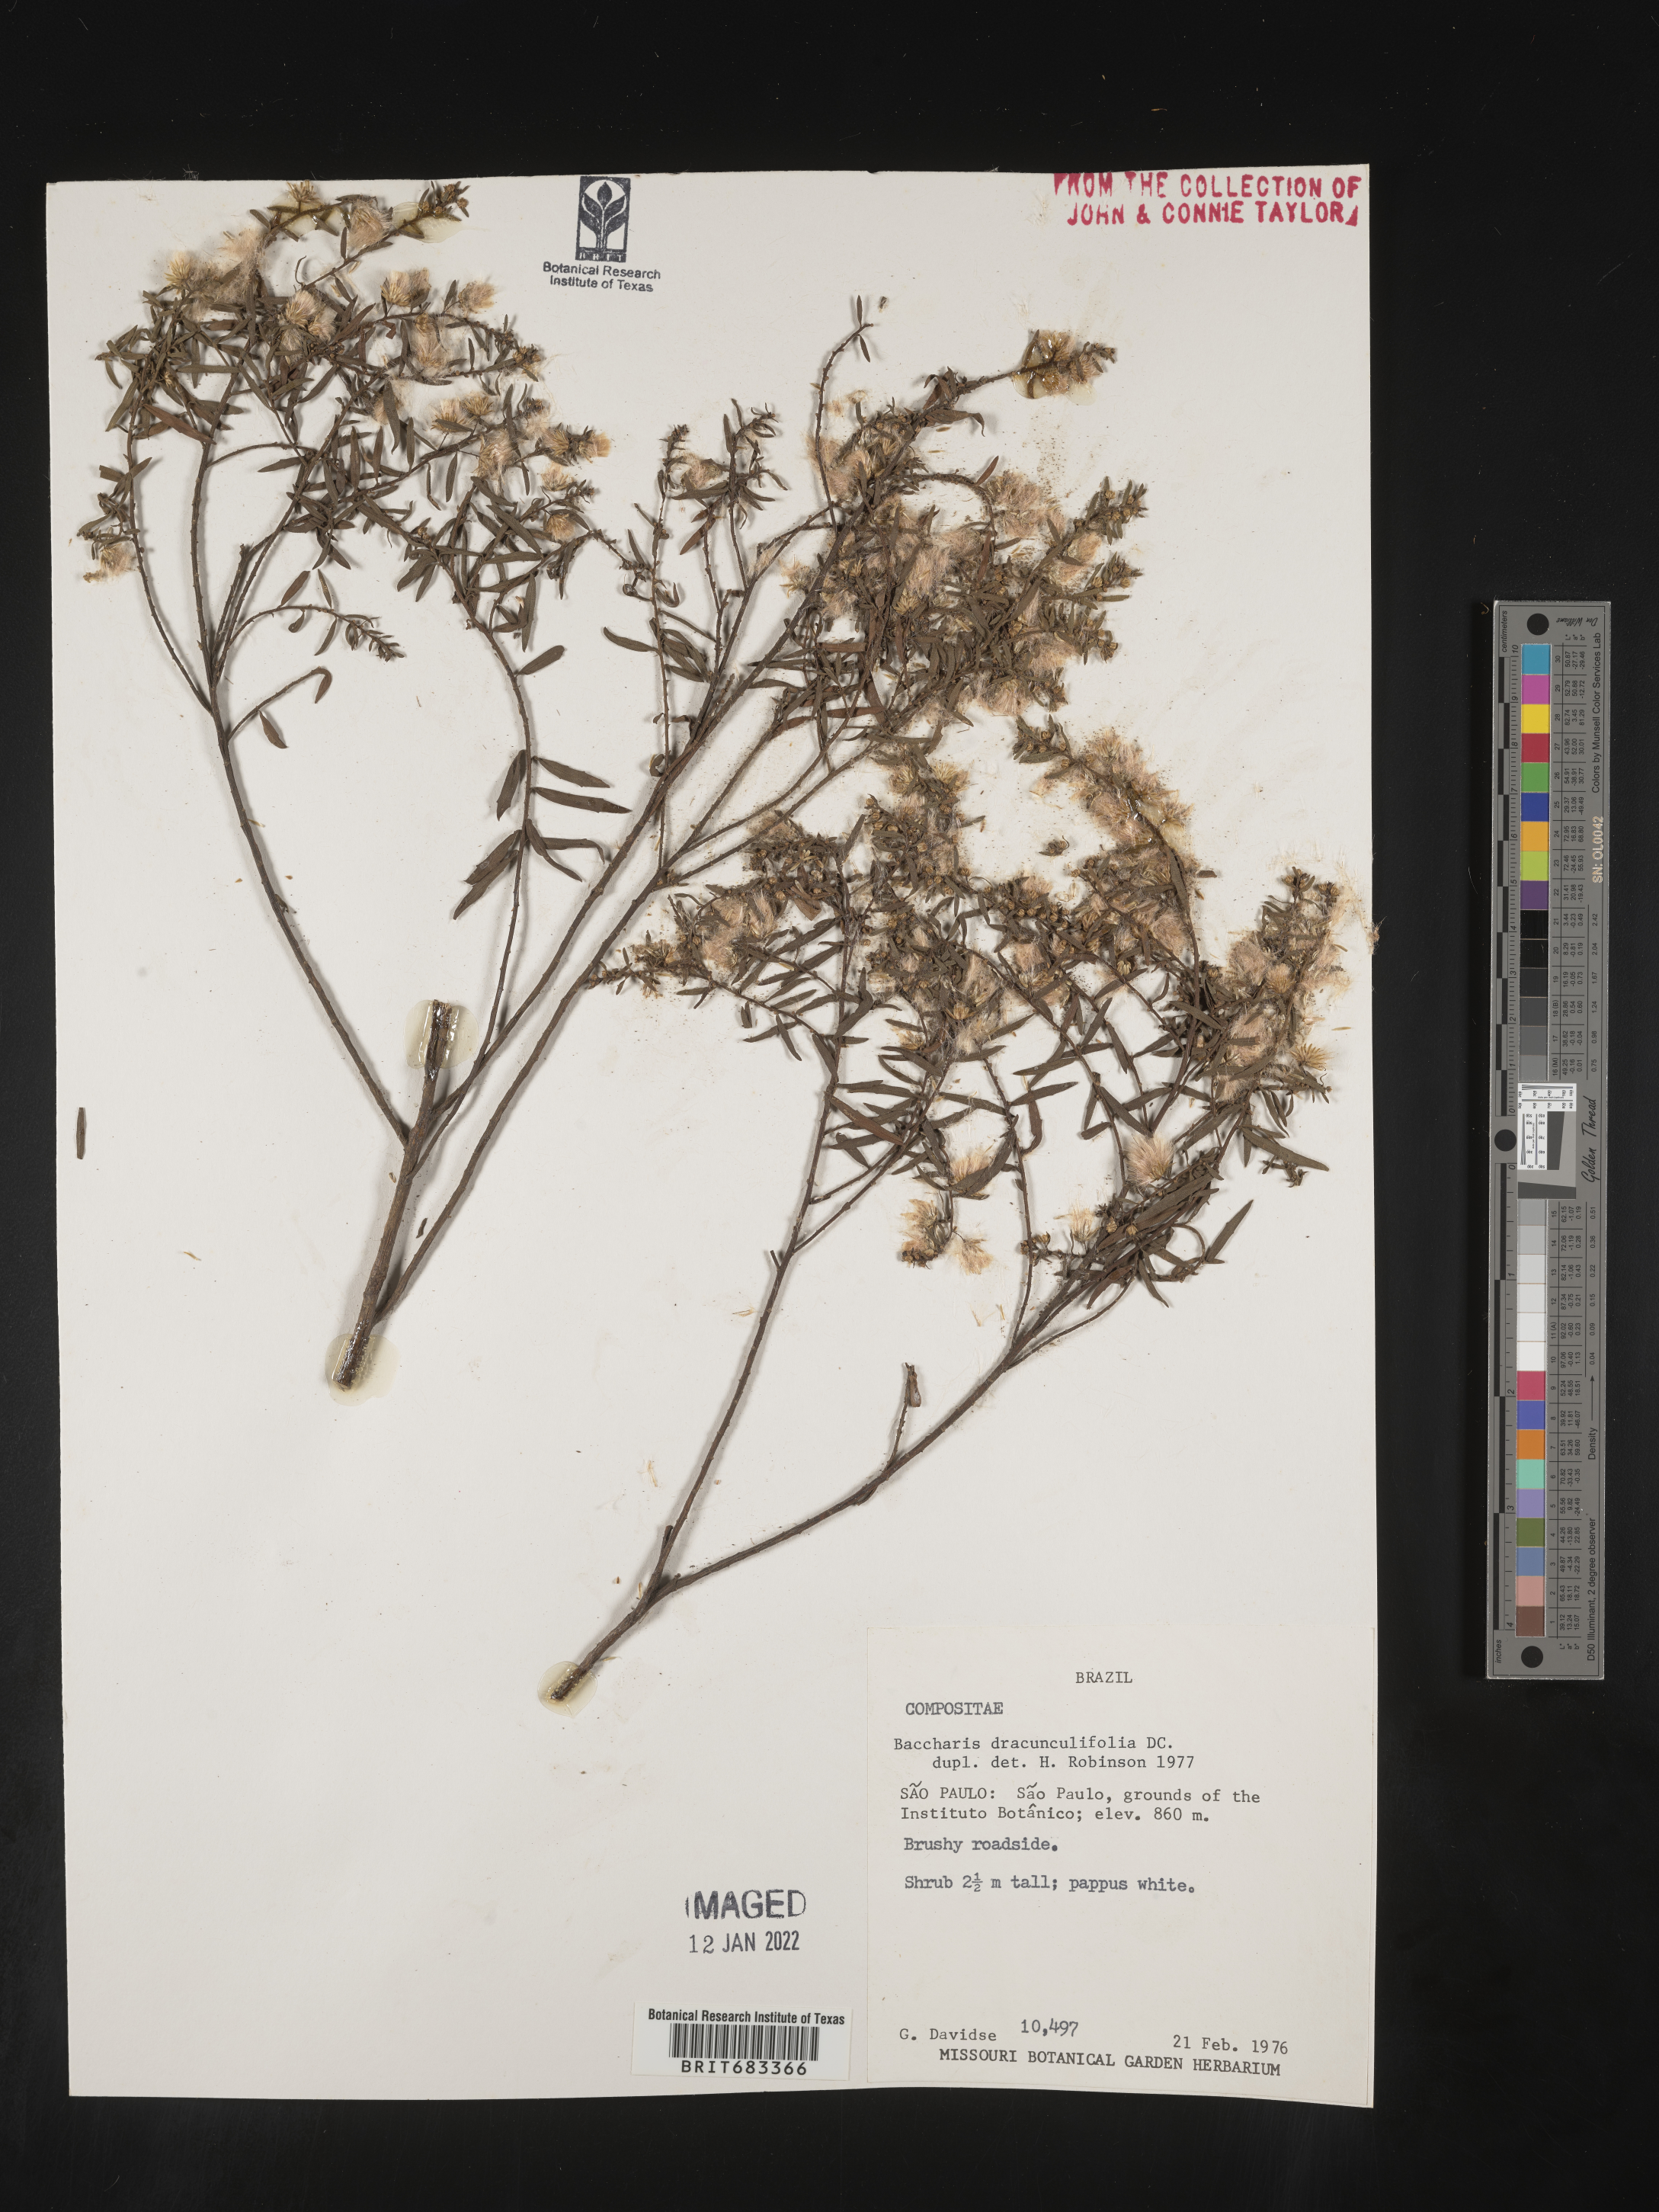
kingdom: Plantae
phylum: Tracheophyta
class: Magnoliopsida
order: Asterales
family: Asteraceae
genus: Baccharis
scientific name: Baccharis
